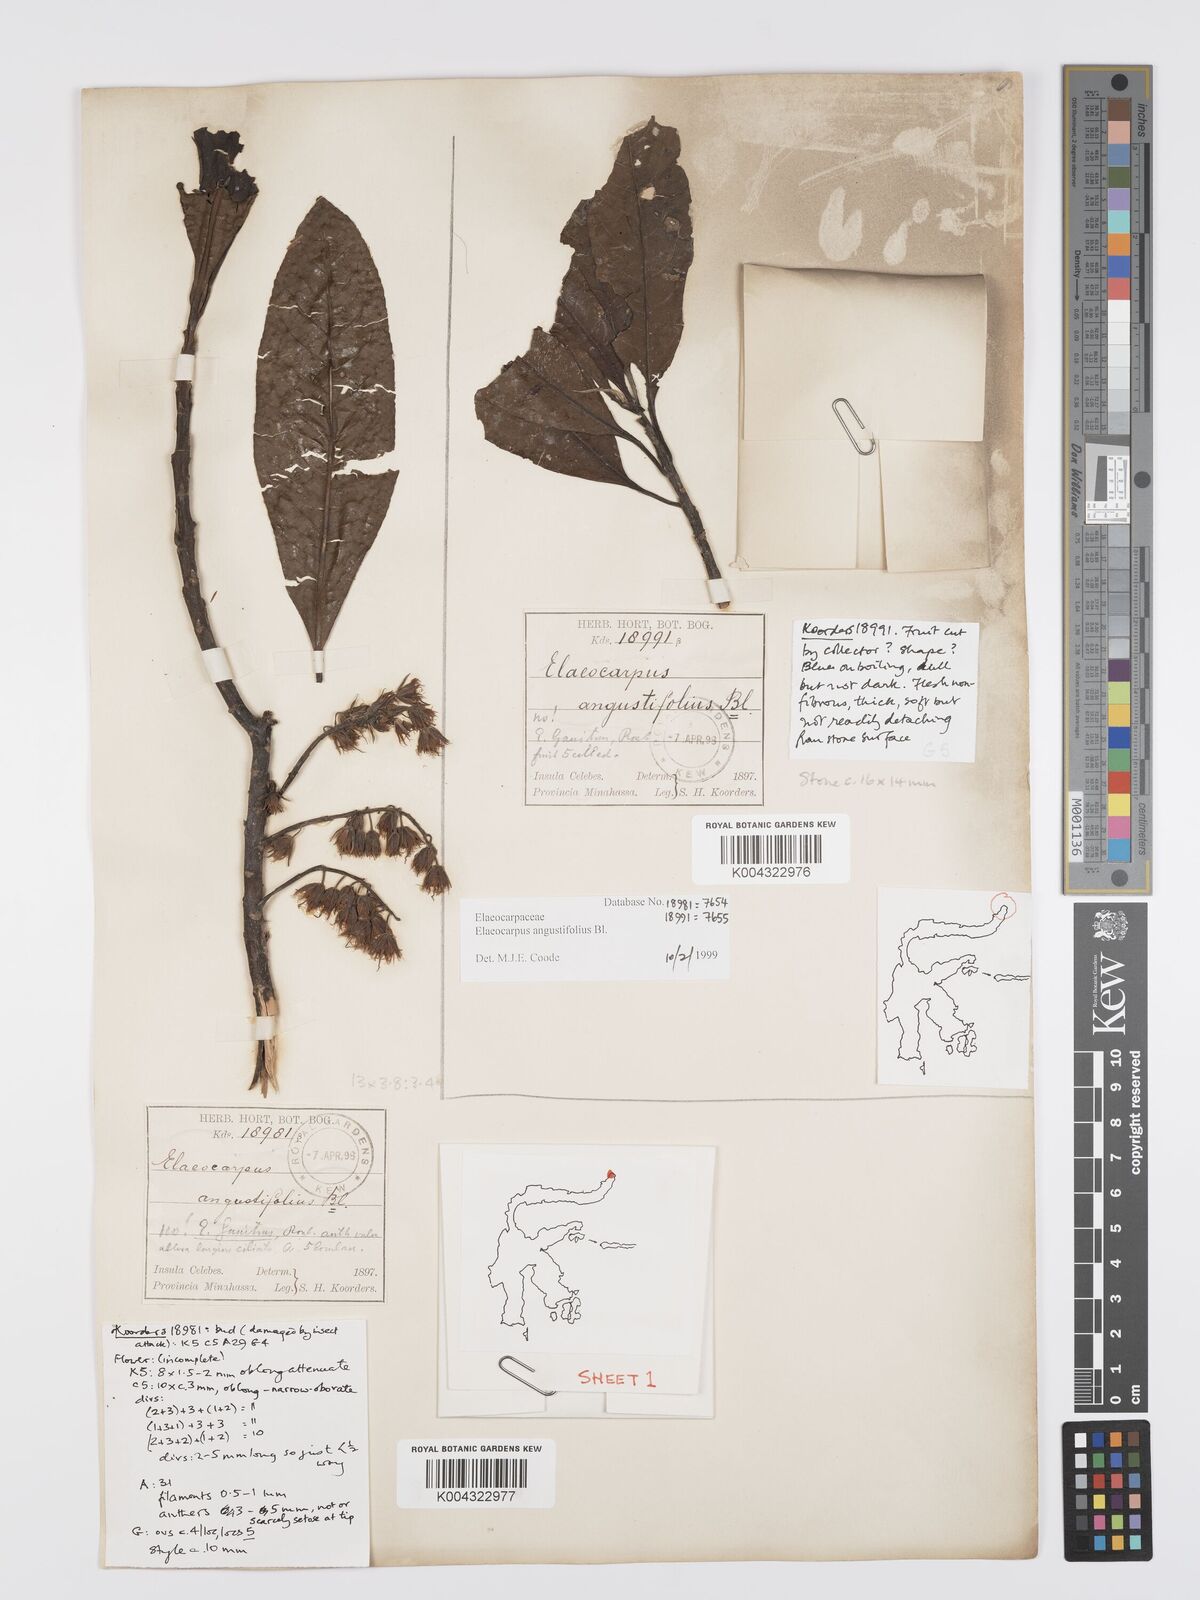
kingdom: Plantae
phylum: Tracheophyta
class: Magnoliopsida
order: Oxalidales
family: Elaeocarpaceae
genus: Elaeocarpus
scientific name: Elaeocarpus
